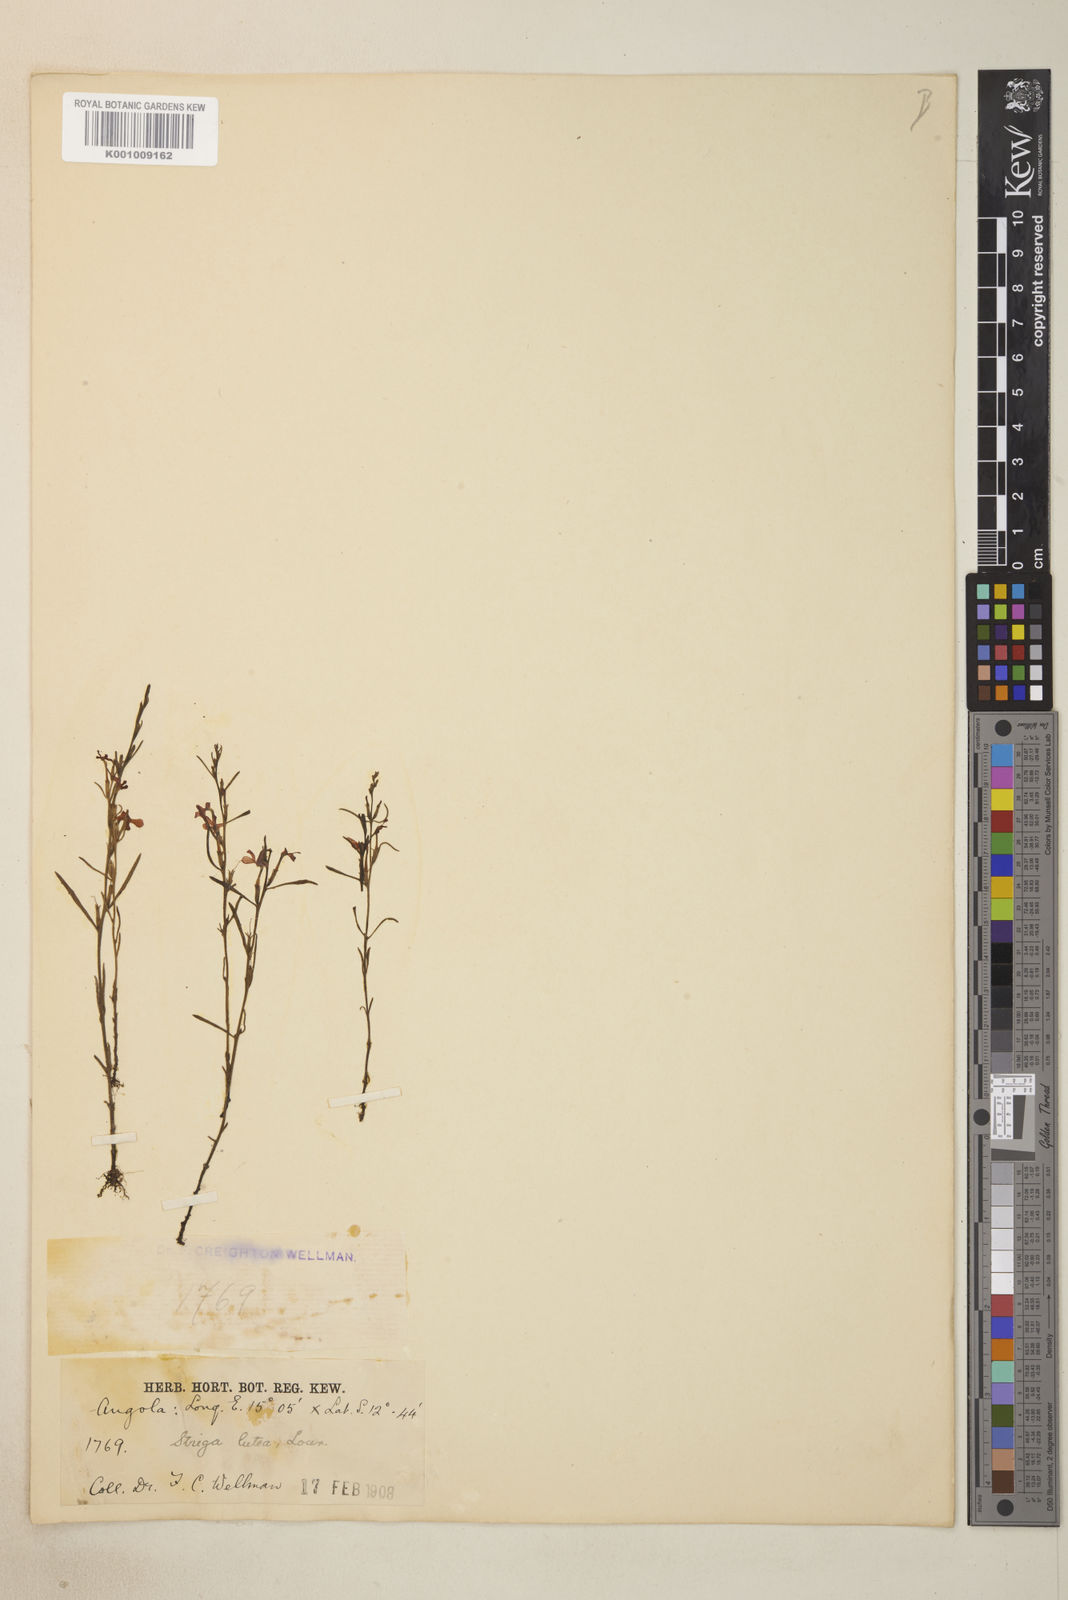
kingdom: Plantae
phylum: Tracheophyta
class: Magnoliopsida
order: Lamiales
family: Orobanchaceae
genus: Striga
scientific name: Striga asiatica
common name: Asiatic witchweed
